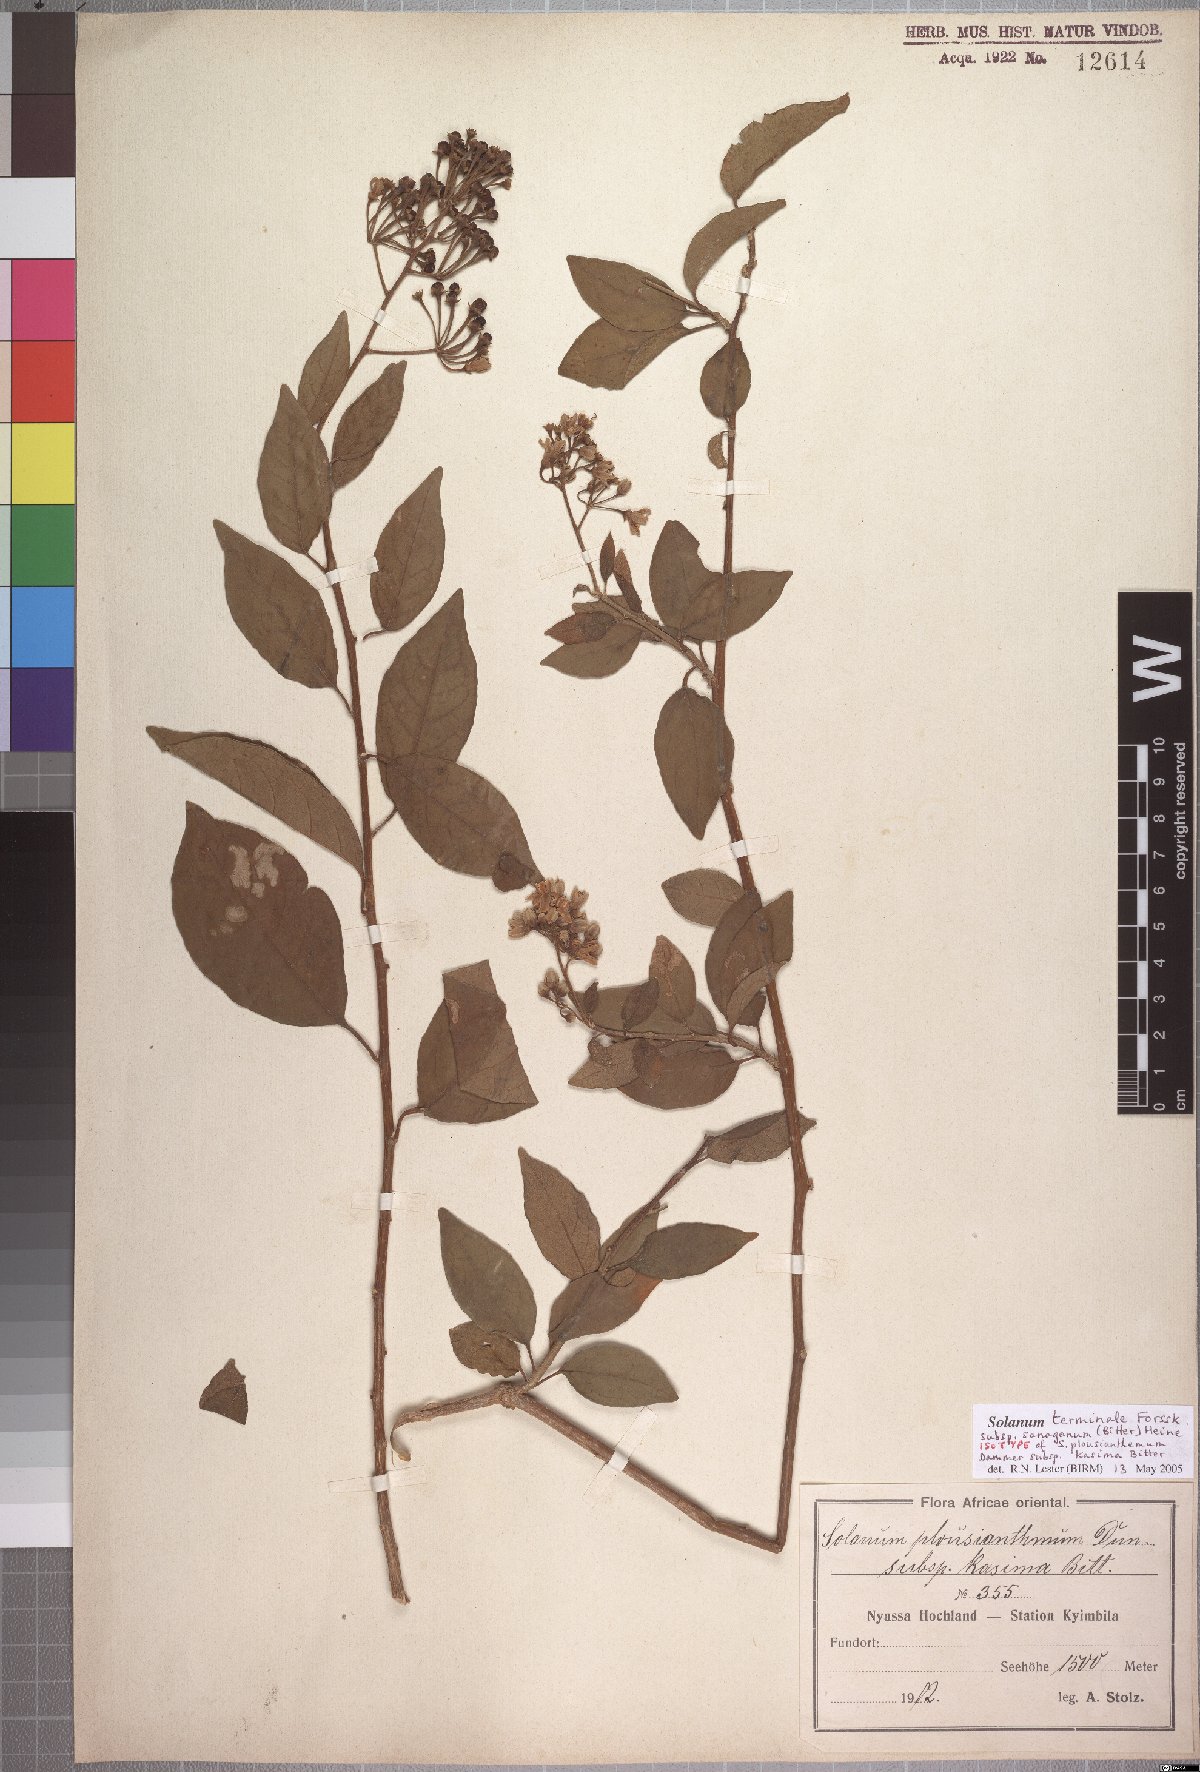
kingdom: Plantae
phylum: Tracheophyta
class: Magnoliopsida
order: Solanales
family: Solanaceae
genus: Solanum
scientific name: Solanum terminale
